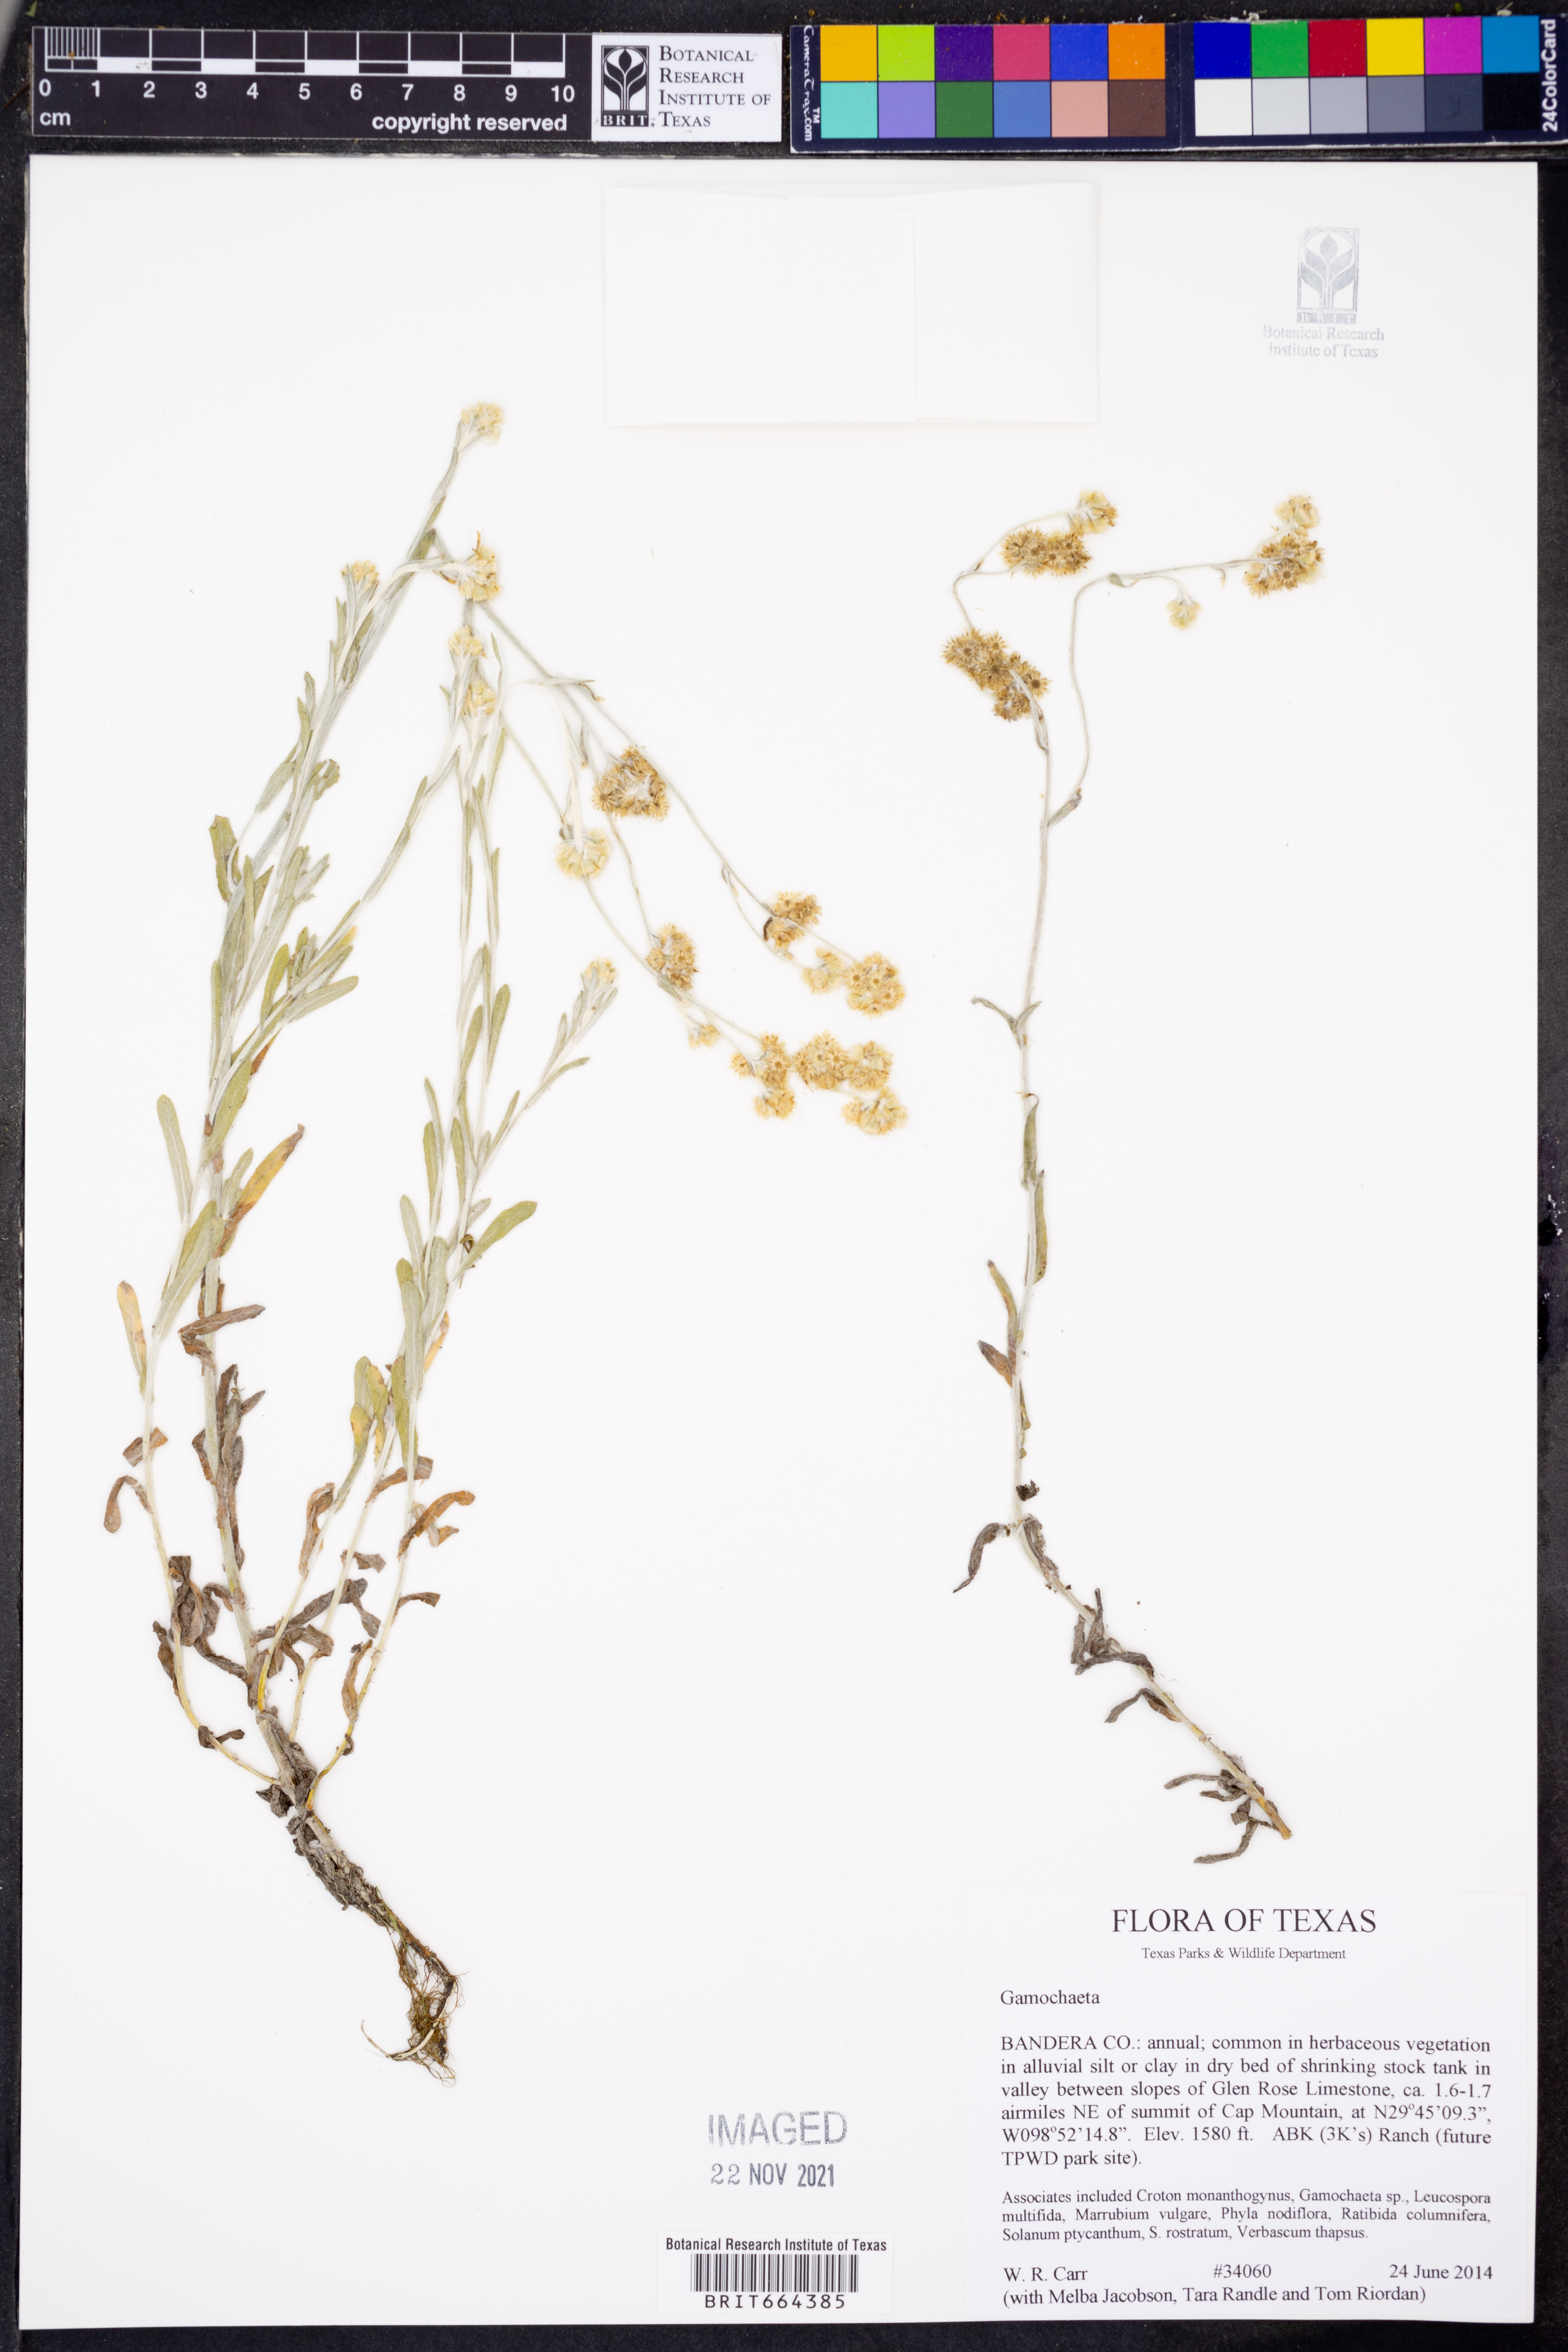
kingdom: Plantae
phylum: Tracheophyta
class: Magnoliopsida
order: Asterales
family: Asteraceae
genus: Gamochaeta
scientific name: Gamochaeta
